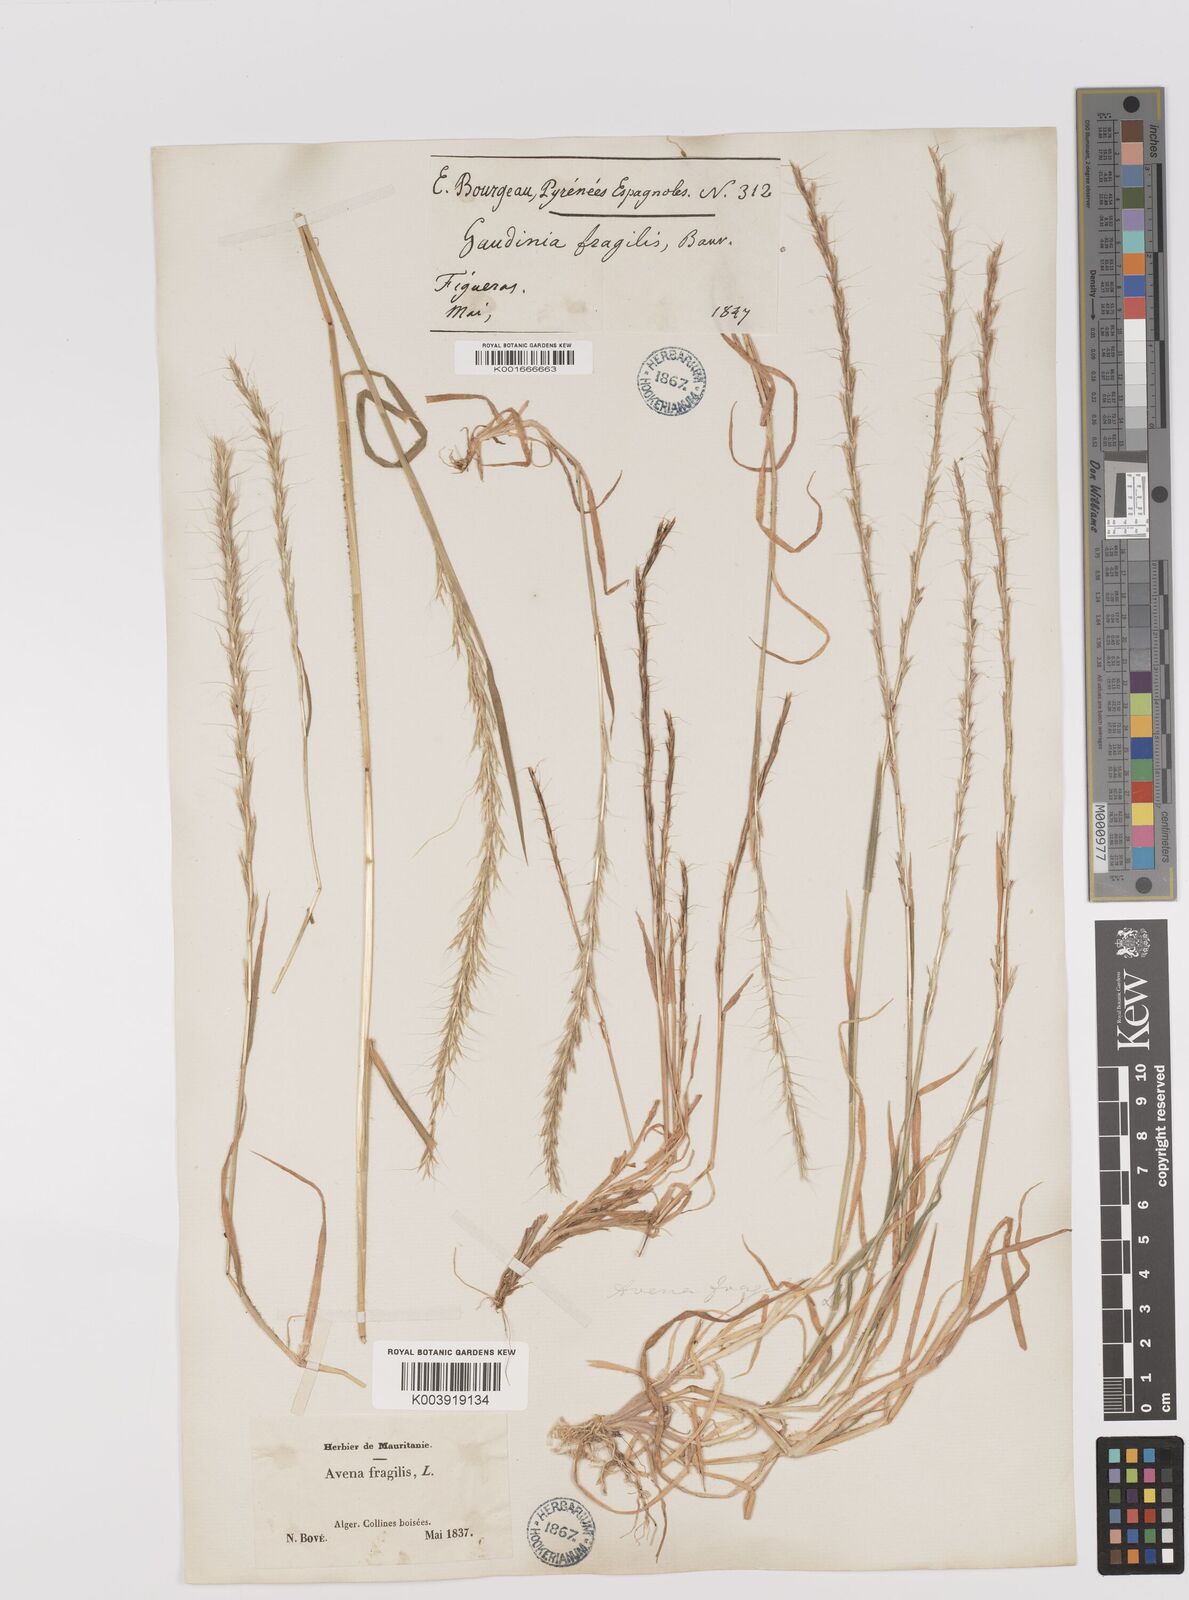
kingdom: Plantae
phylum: Tracheophyta
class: Liliopsida
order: Poales
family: Poaceae
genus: Gaudinia
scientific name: Gaudinia fragilis
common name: French oat-grass
